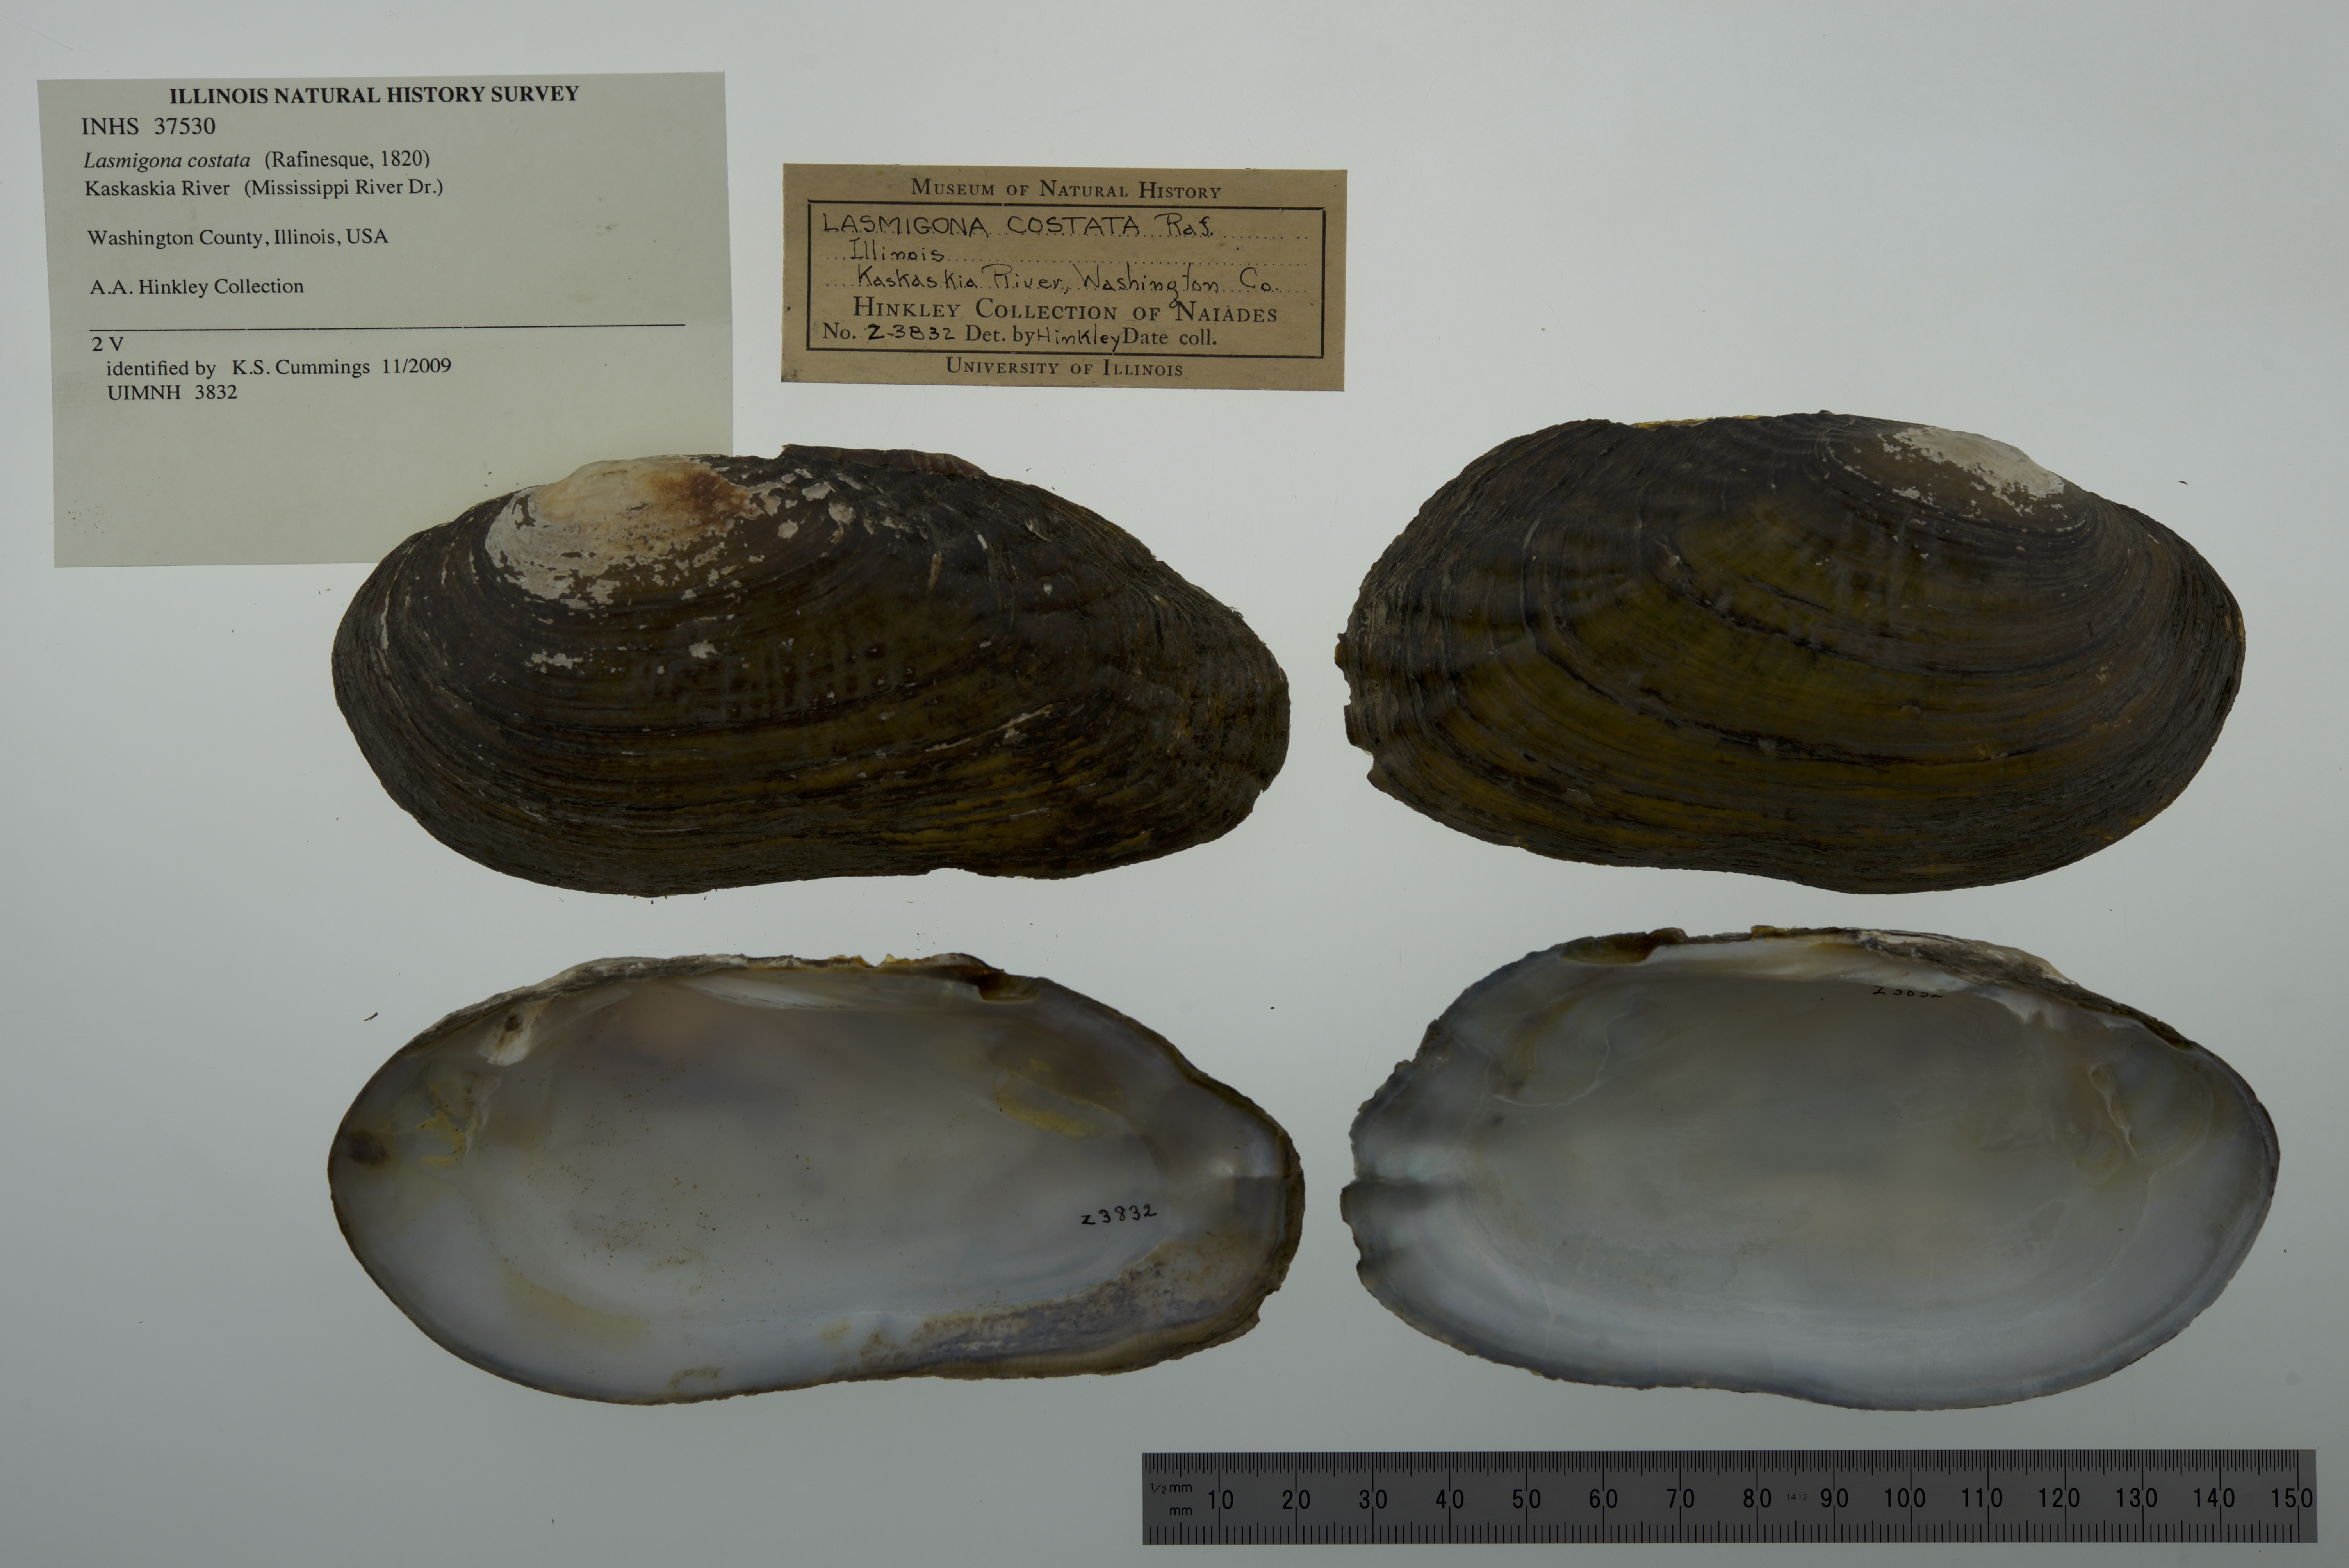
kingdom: Animalia
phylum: Mollusca
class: Bivalvia
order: Unionida
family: Unionidae
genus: Lasmigona
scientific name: Lasmigona costata
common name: Flutedshell
